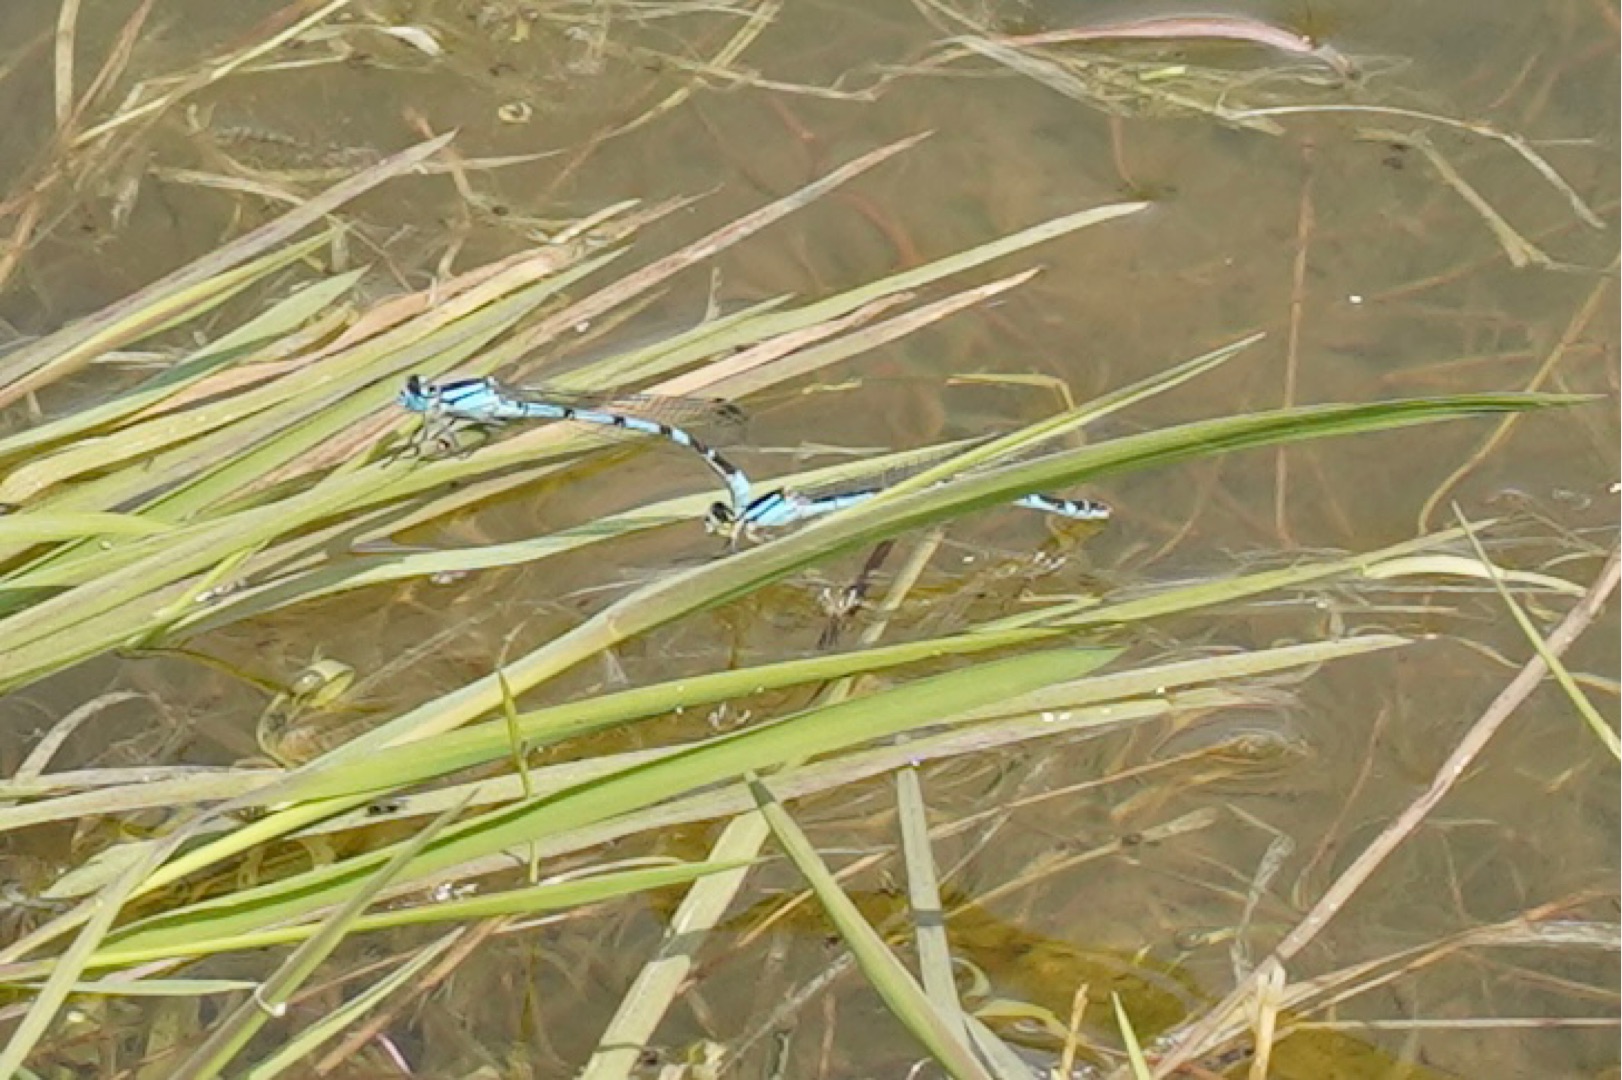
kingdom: Animalia
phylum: Arthropoda
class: Insecta
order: Odonata
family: Coenagrionidae
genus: Enallagma
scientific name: Enallagma cyathigerum
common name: Almindelig vandnymfe
